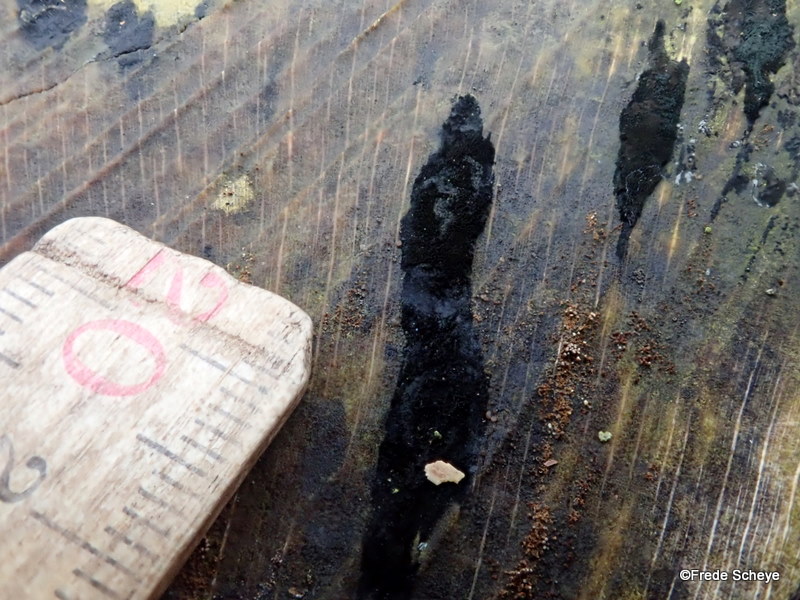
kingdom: Fungi
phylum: Ascomycota
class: Leotiomycetes
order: Helotiales
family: Helotiaceae
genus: Bispora
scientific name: Bispora pallescens
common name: måtte-snitskive
